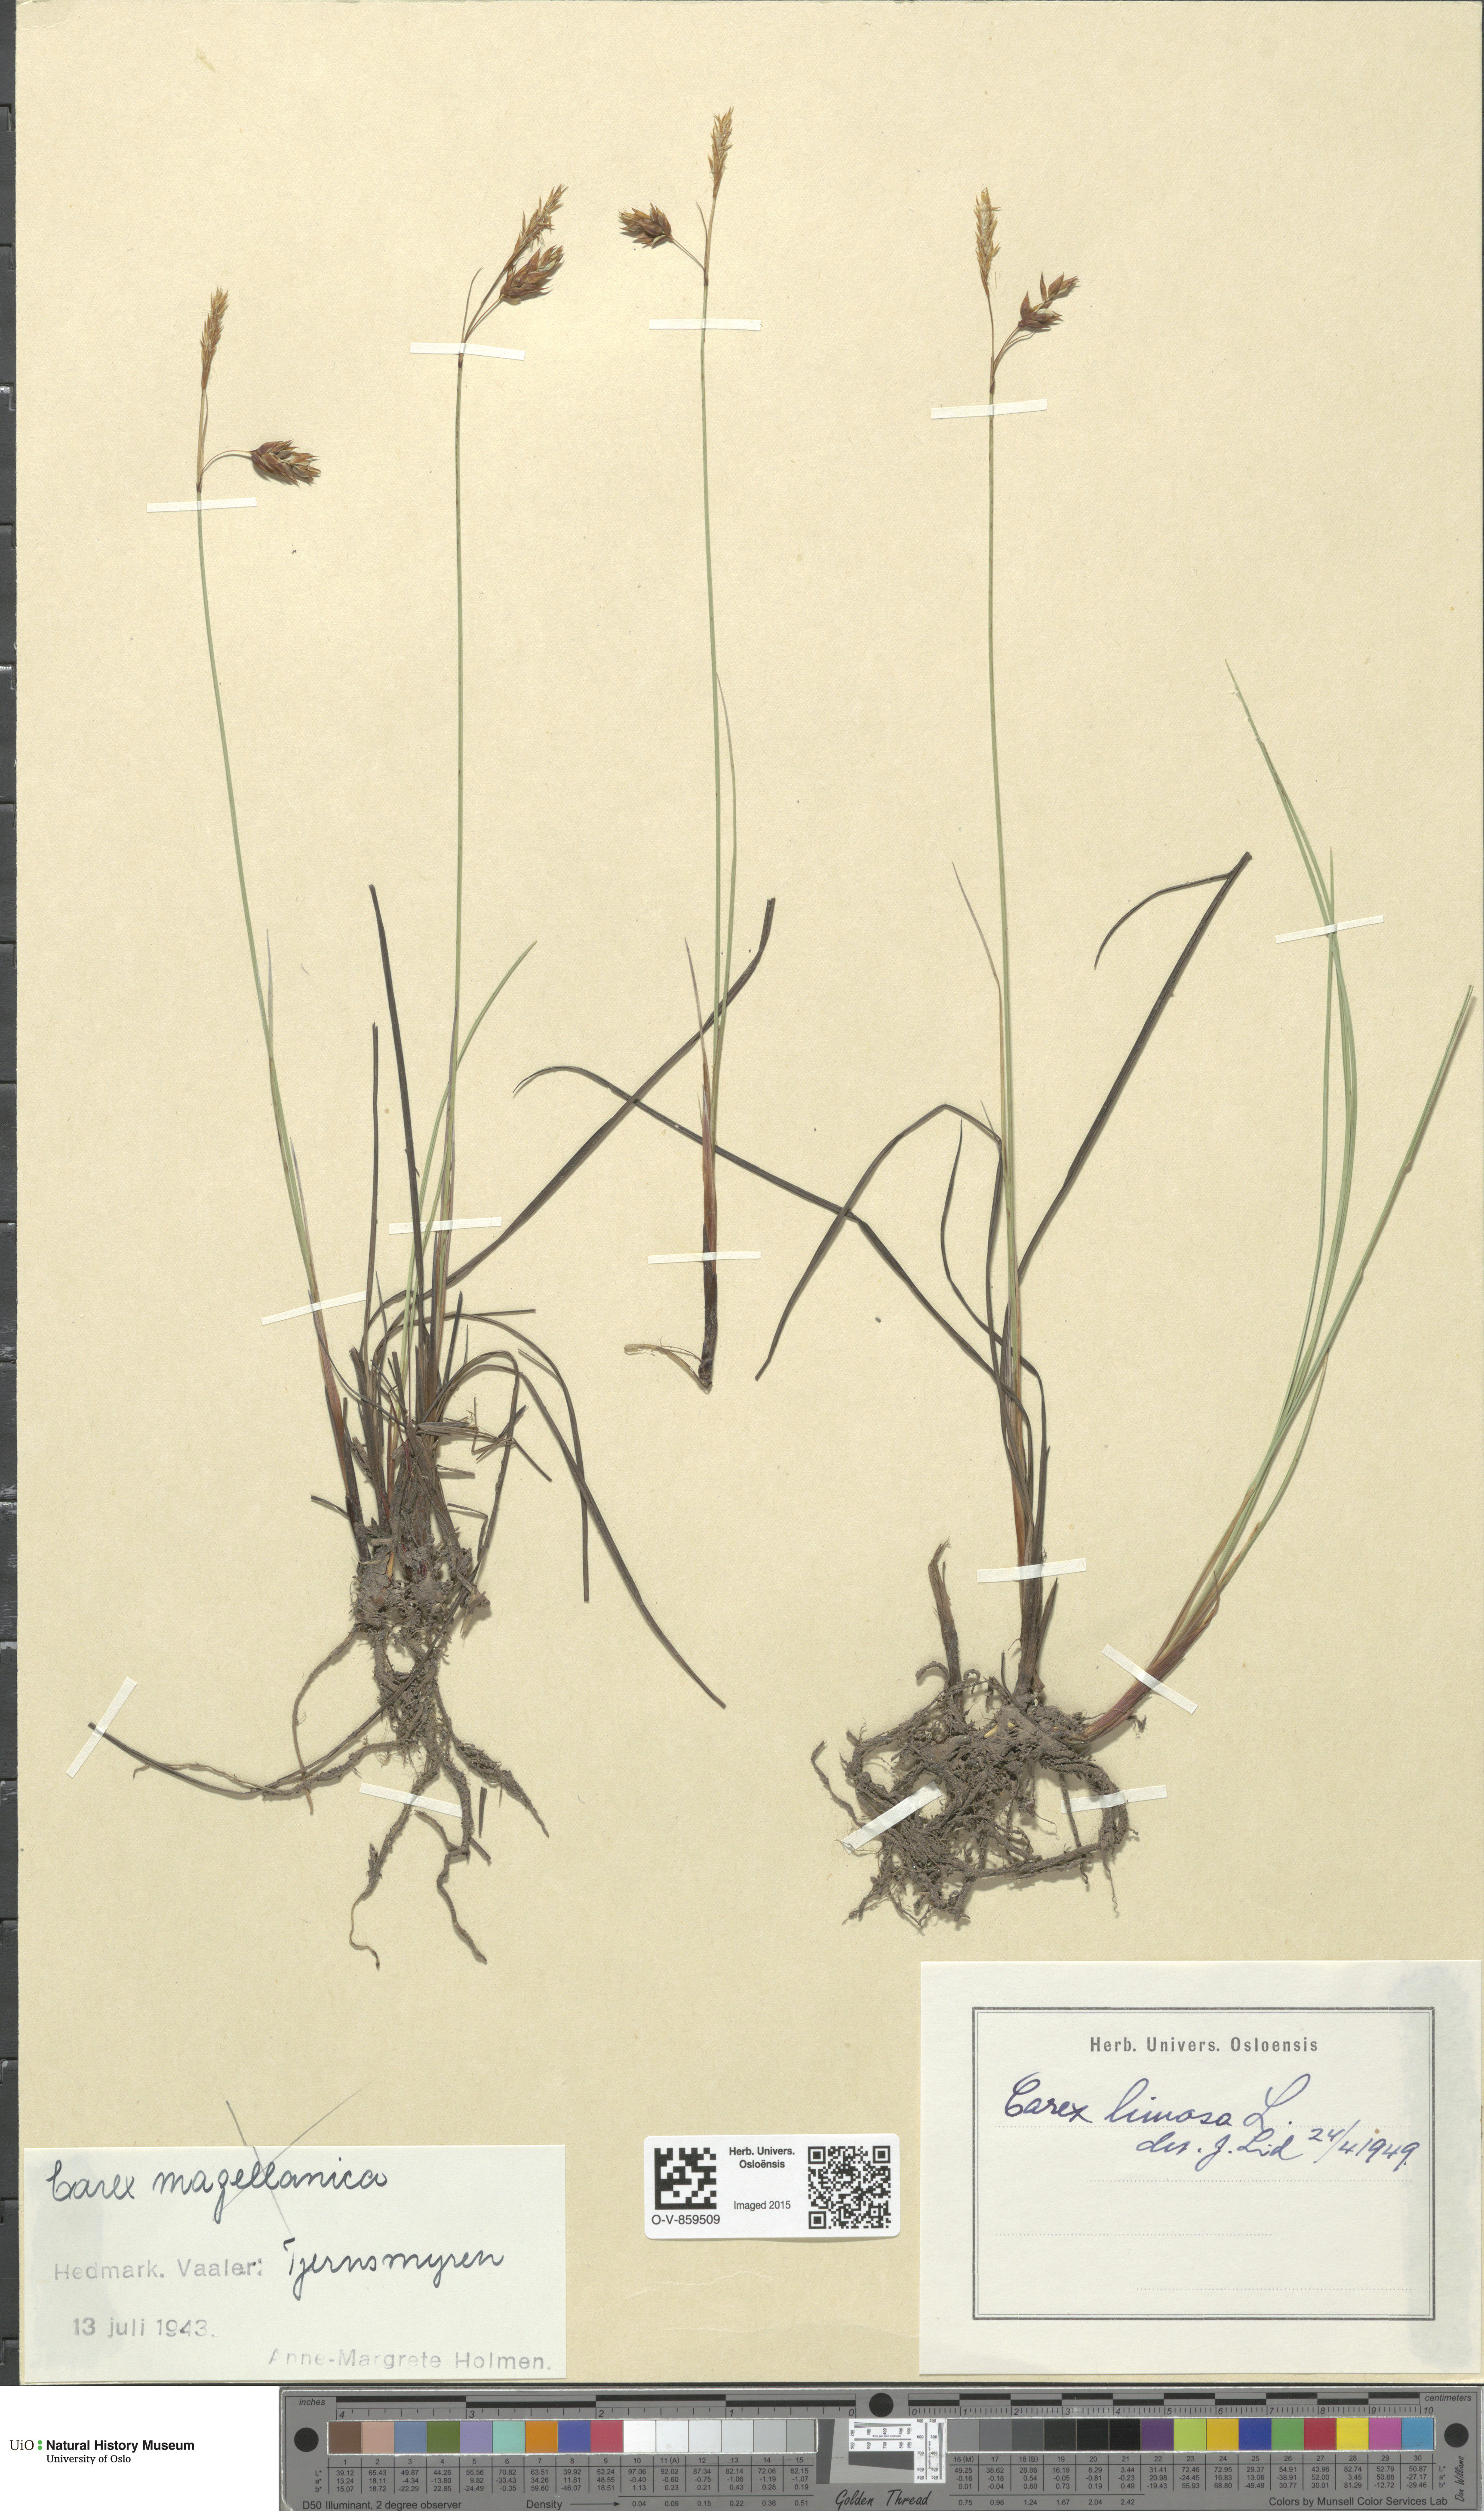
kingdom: Plantae
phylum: Tracheophyta
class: Liliopsida
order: Poales
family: Cyperaceae
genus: Carex
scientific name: Carex limosa
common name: Bog sedge
